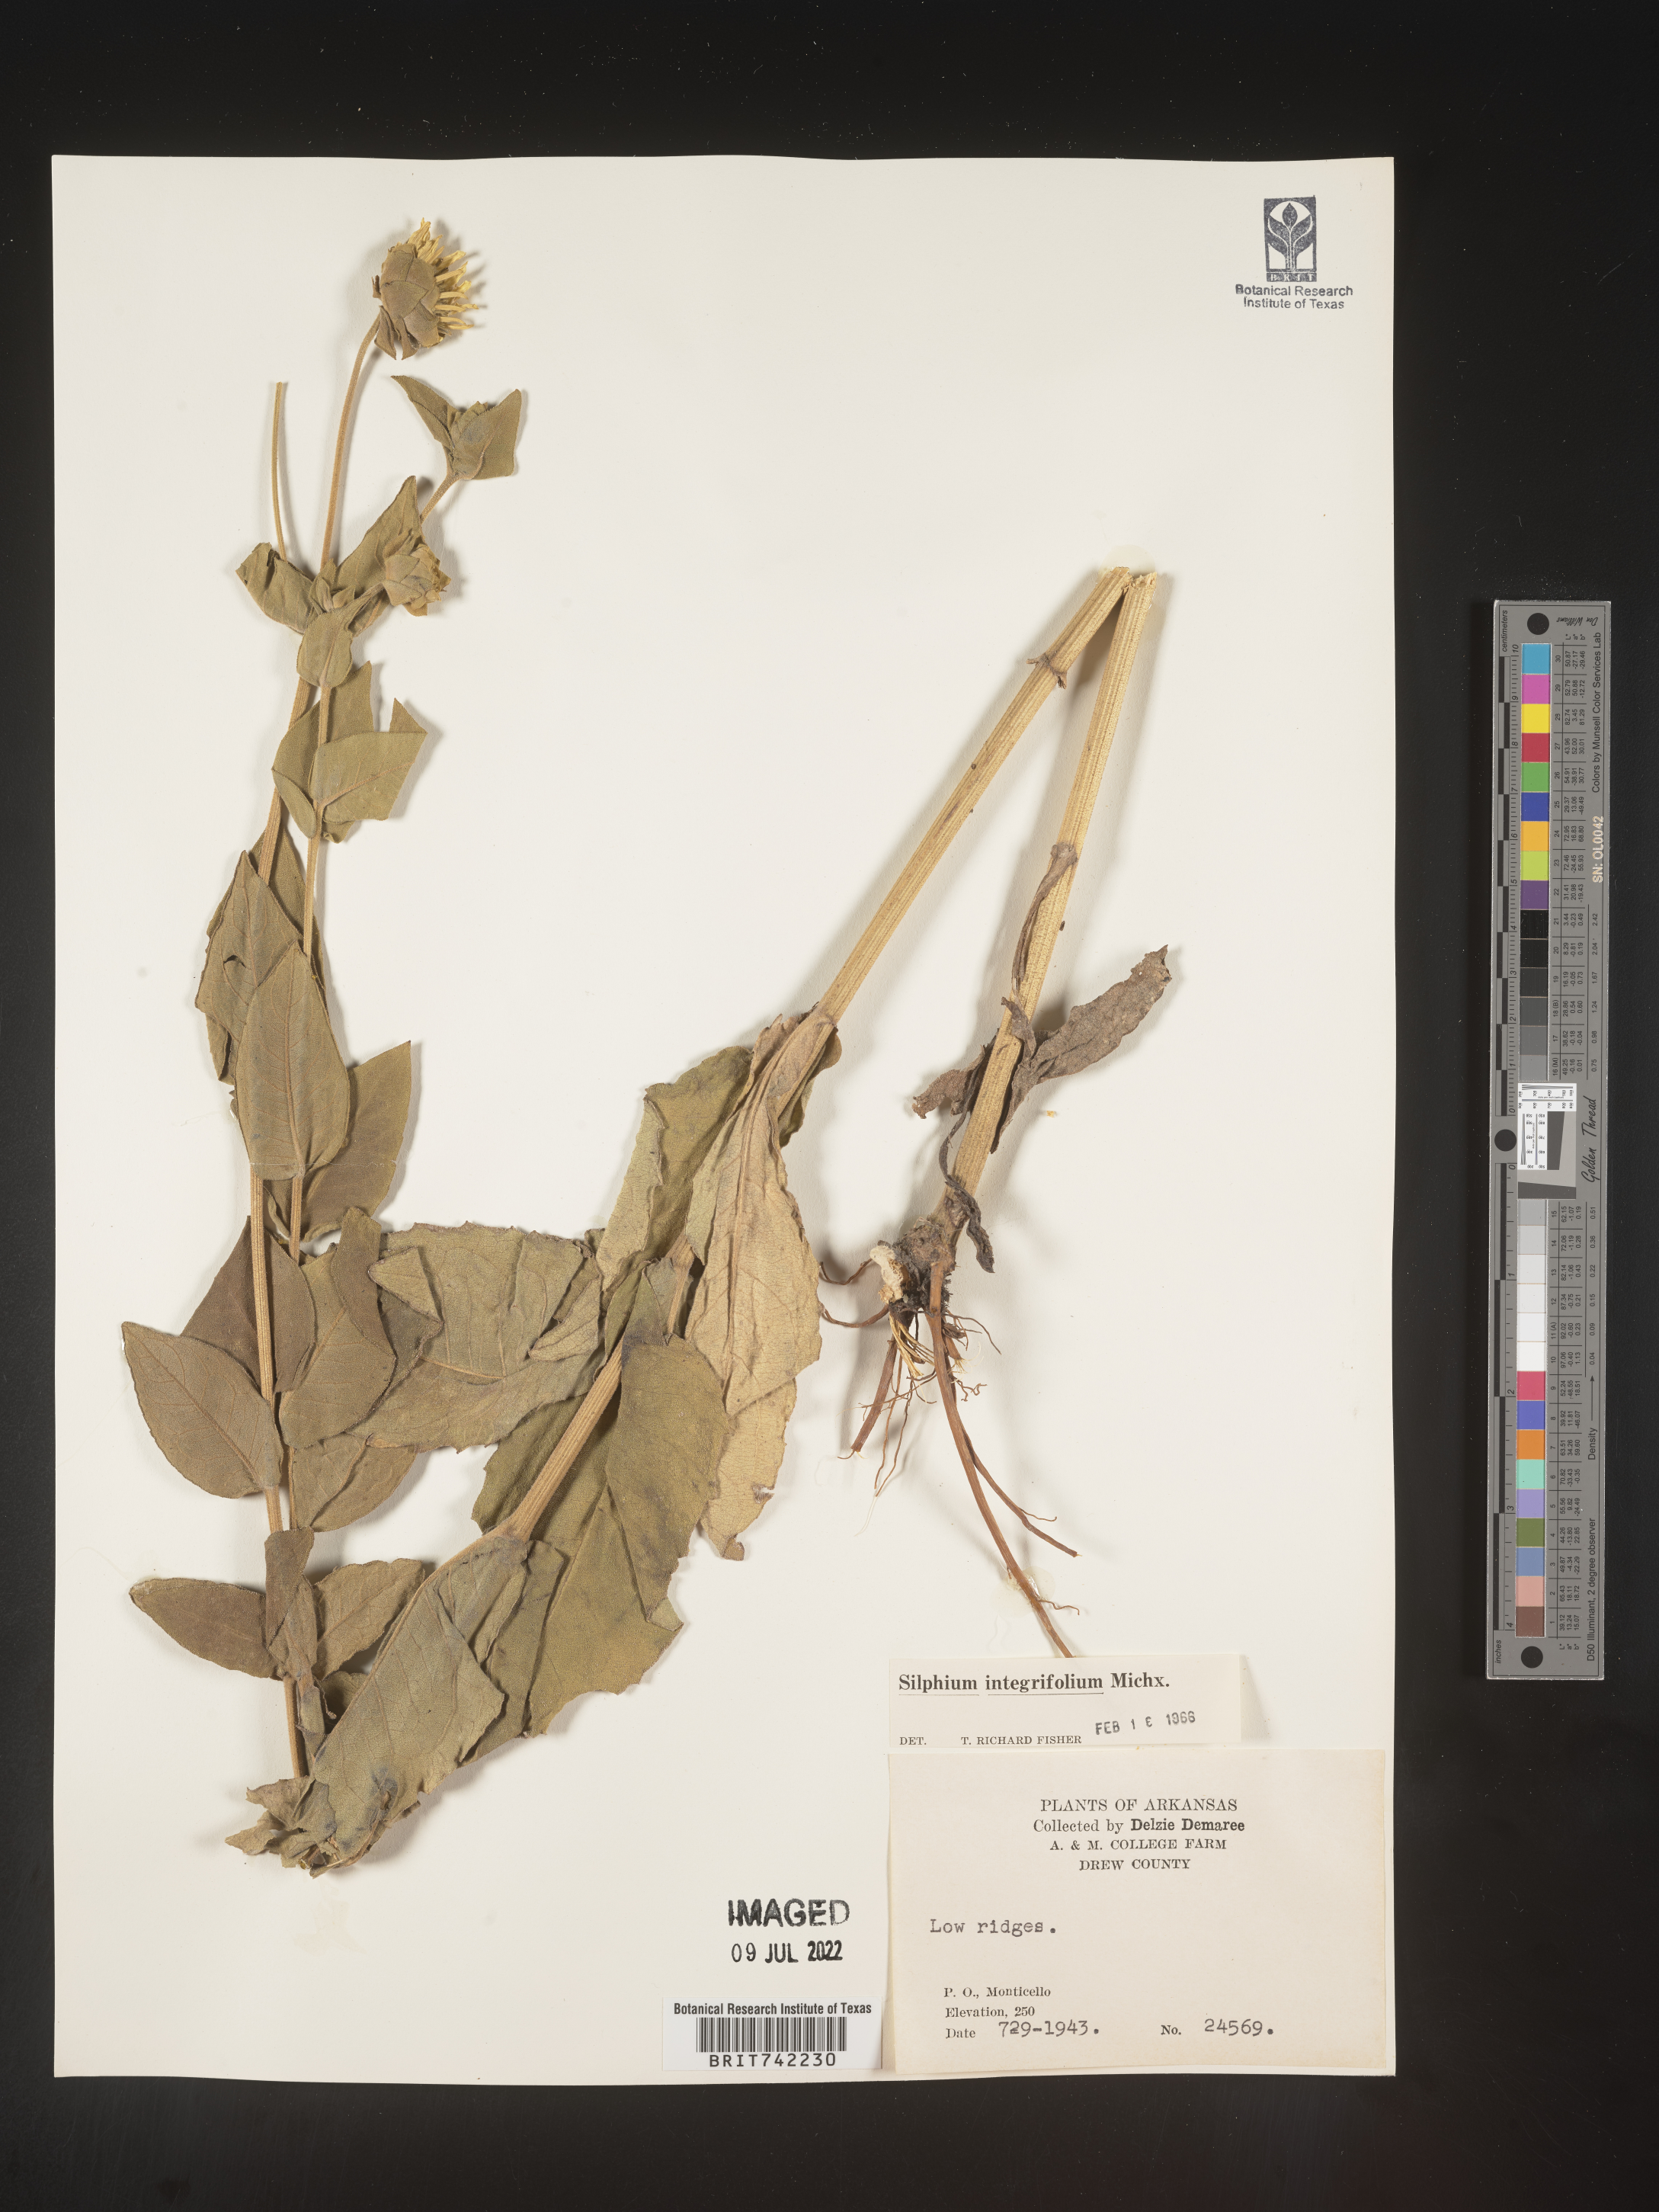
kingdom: Plantae
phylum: Tracheophyta
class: Magnoliopsida
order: Asterales
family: Asteraceae
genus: Silphium
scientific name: Silphium integrifolium
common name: Whole-leaf rosinweed
